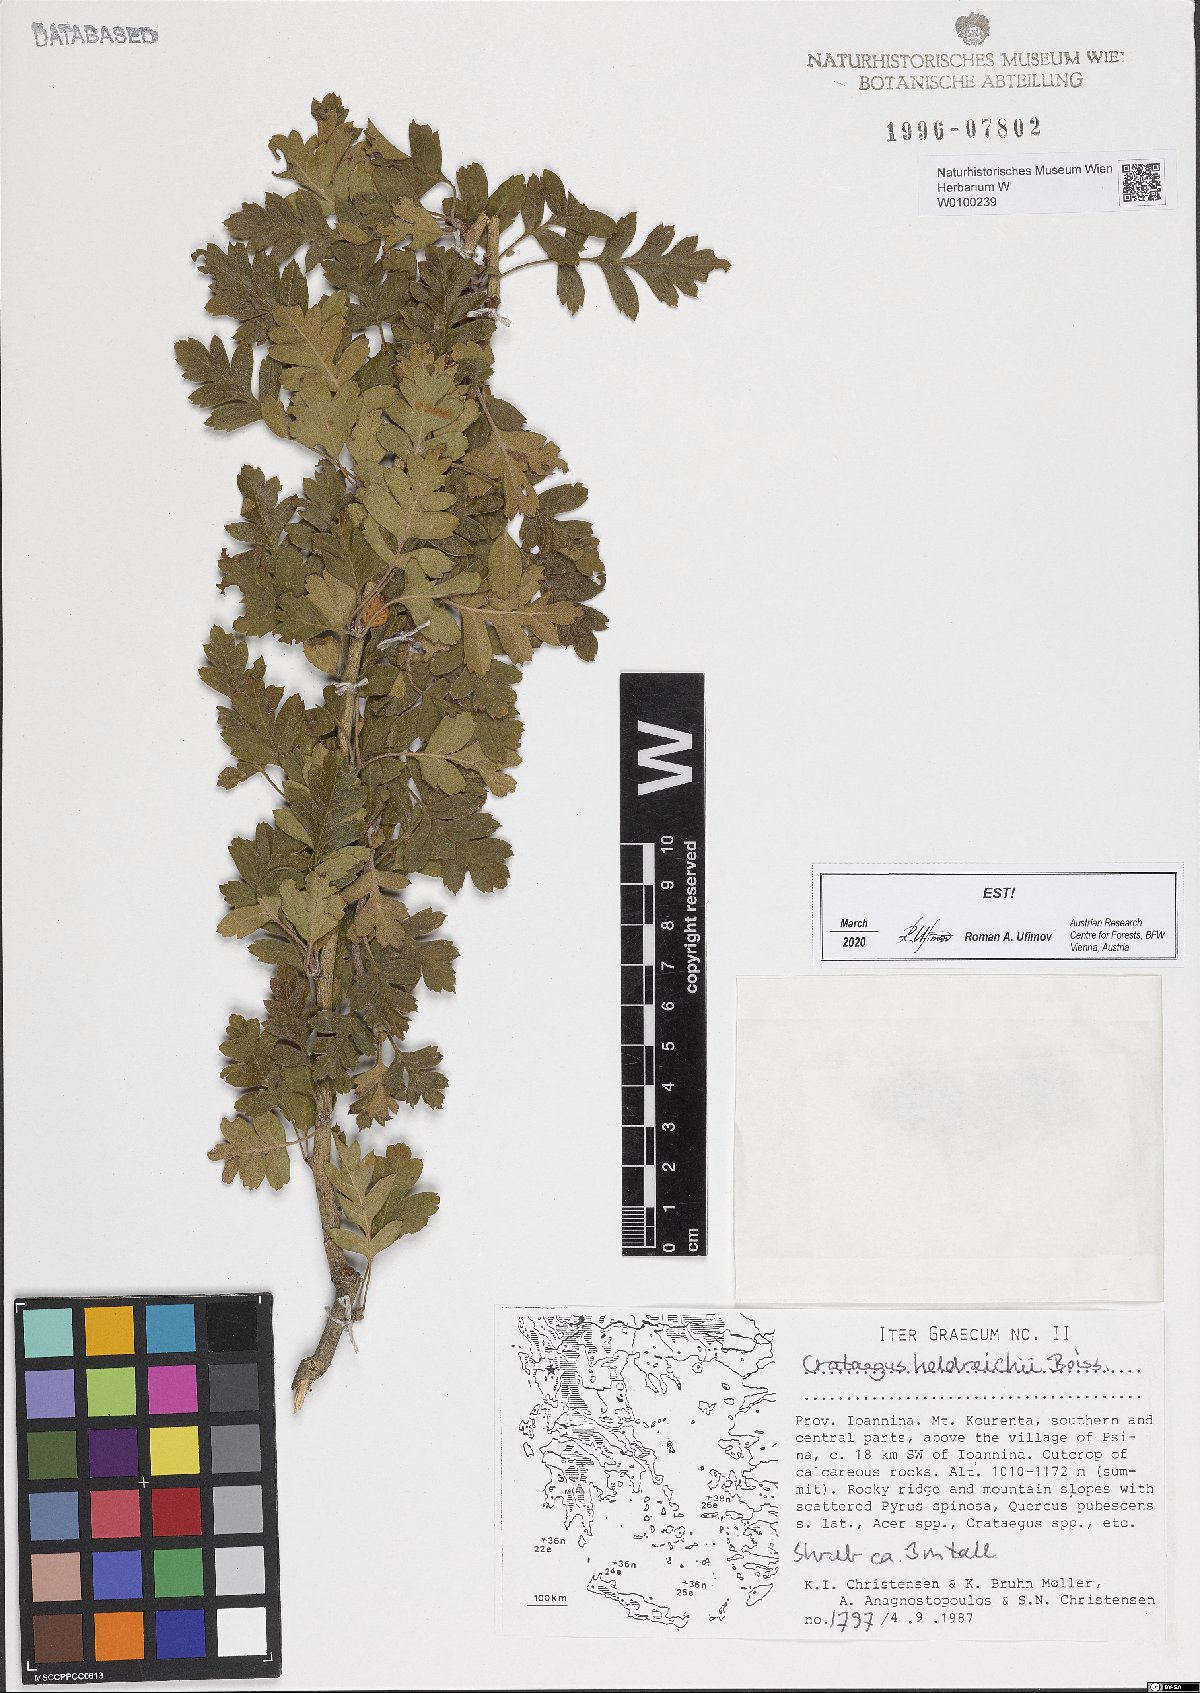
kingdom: Plantae
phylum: Tracheophyta
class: Magnoliopsida
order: Rosales
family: Rosaceae
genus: Crataegus
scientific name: Crataegus heldreichii
